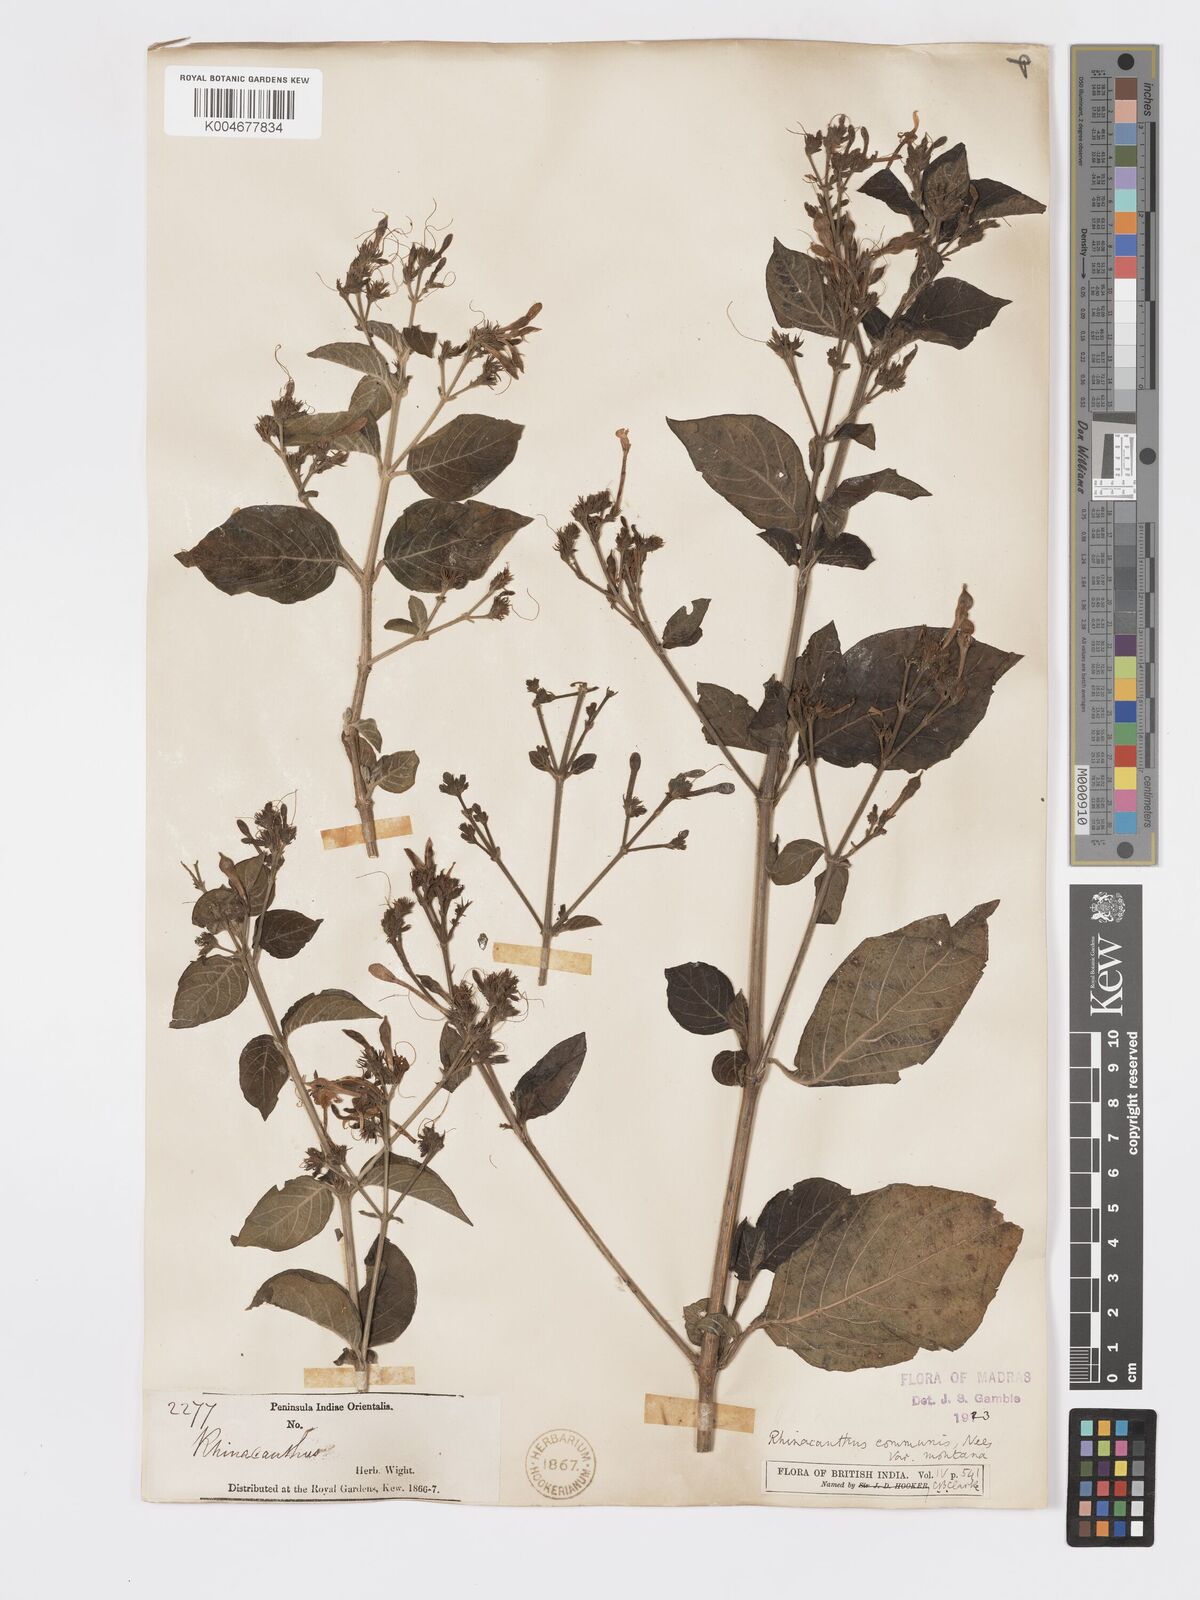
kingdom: Plantae
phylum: Tracheophyta
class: Magnoliopsida
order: Lamiales
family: Acanthaceae
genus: Rhinacanthus
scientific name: Rhinacanthus nasutus
